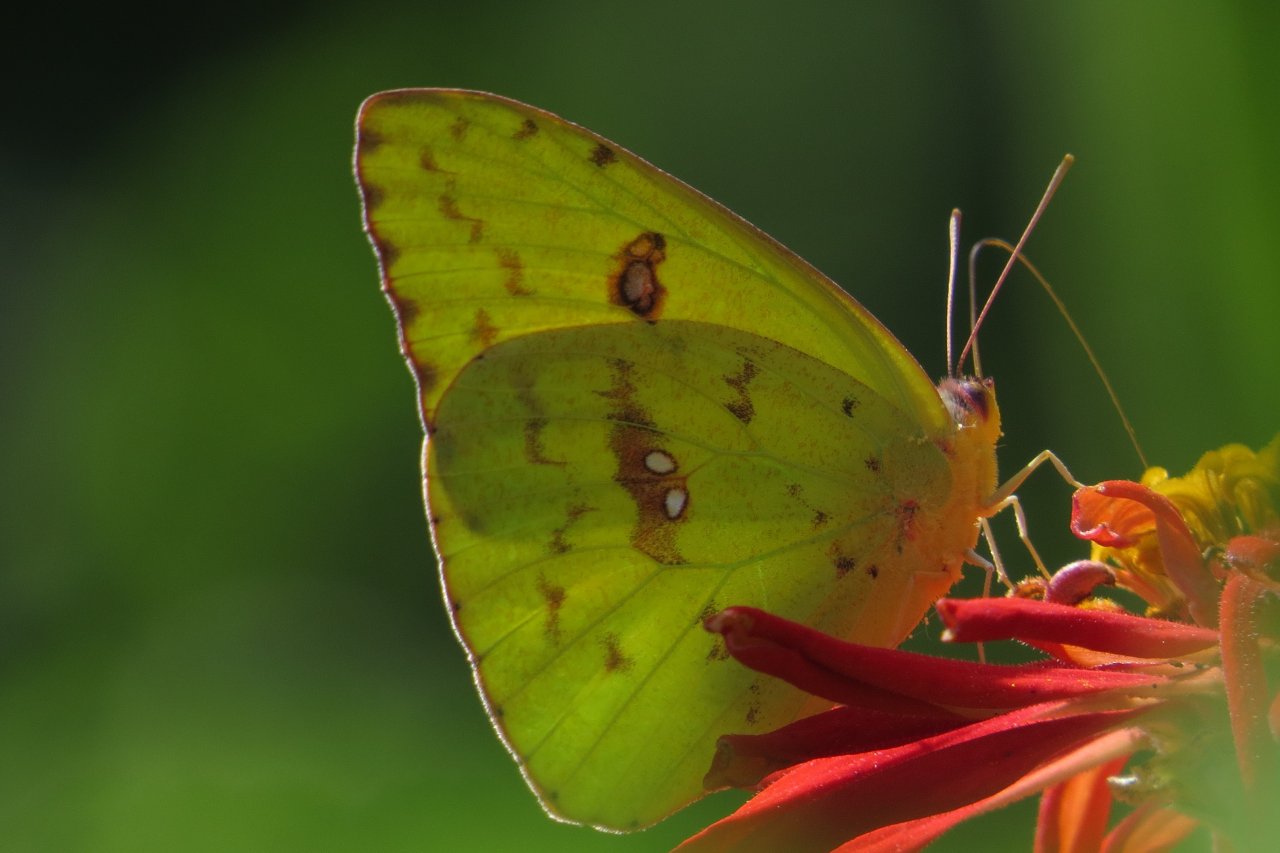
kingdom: Animalia
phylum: Arthropoda
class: Insecta
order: Lepidoptera
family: Pieridae
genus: Phoebis
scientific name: Phoebis sennae
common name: Cloudless Sulphur
